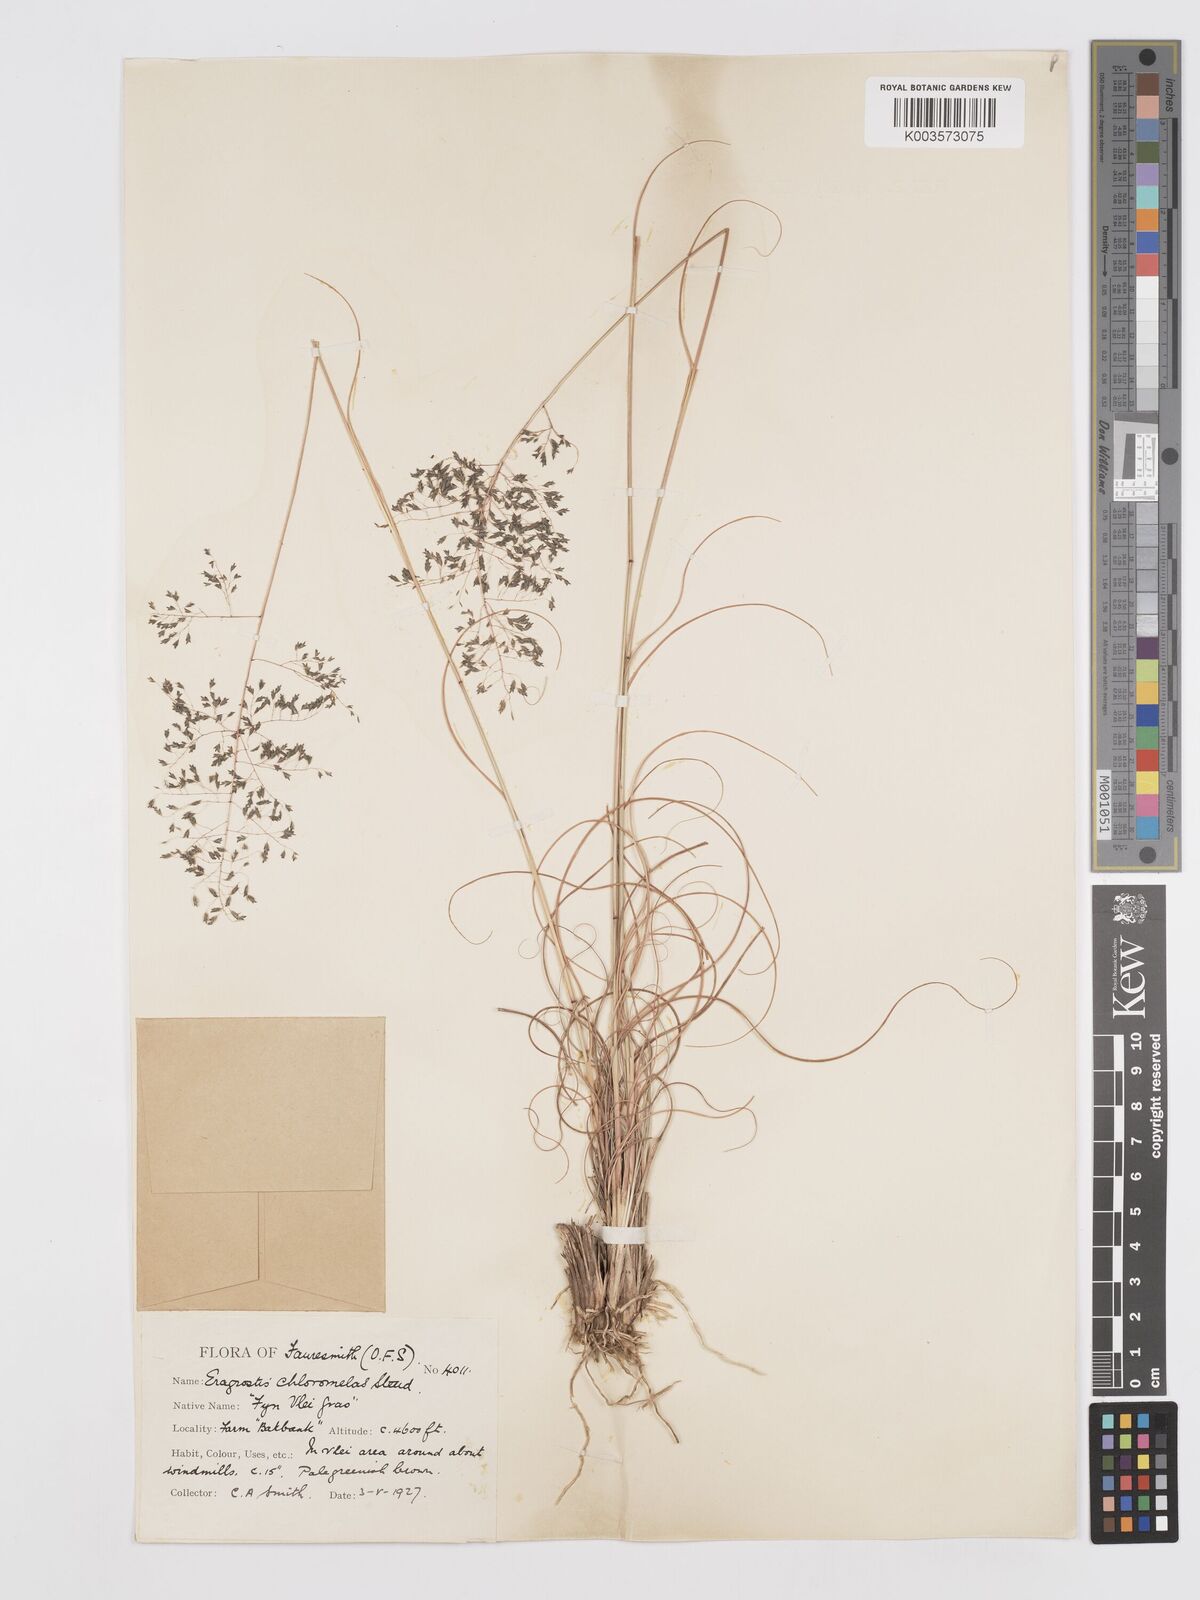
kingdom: Plantae
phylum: Tracheophyta
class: Liliopsida
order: Poales
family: Poaceae
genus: Eragrostis
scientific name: Eragrostis curvula
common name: African love-grass
